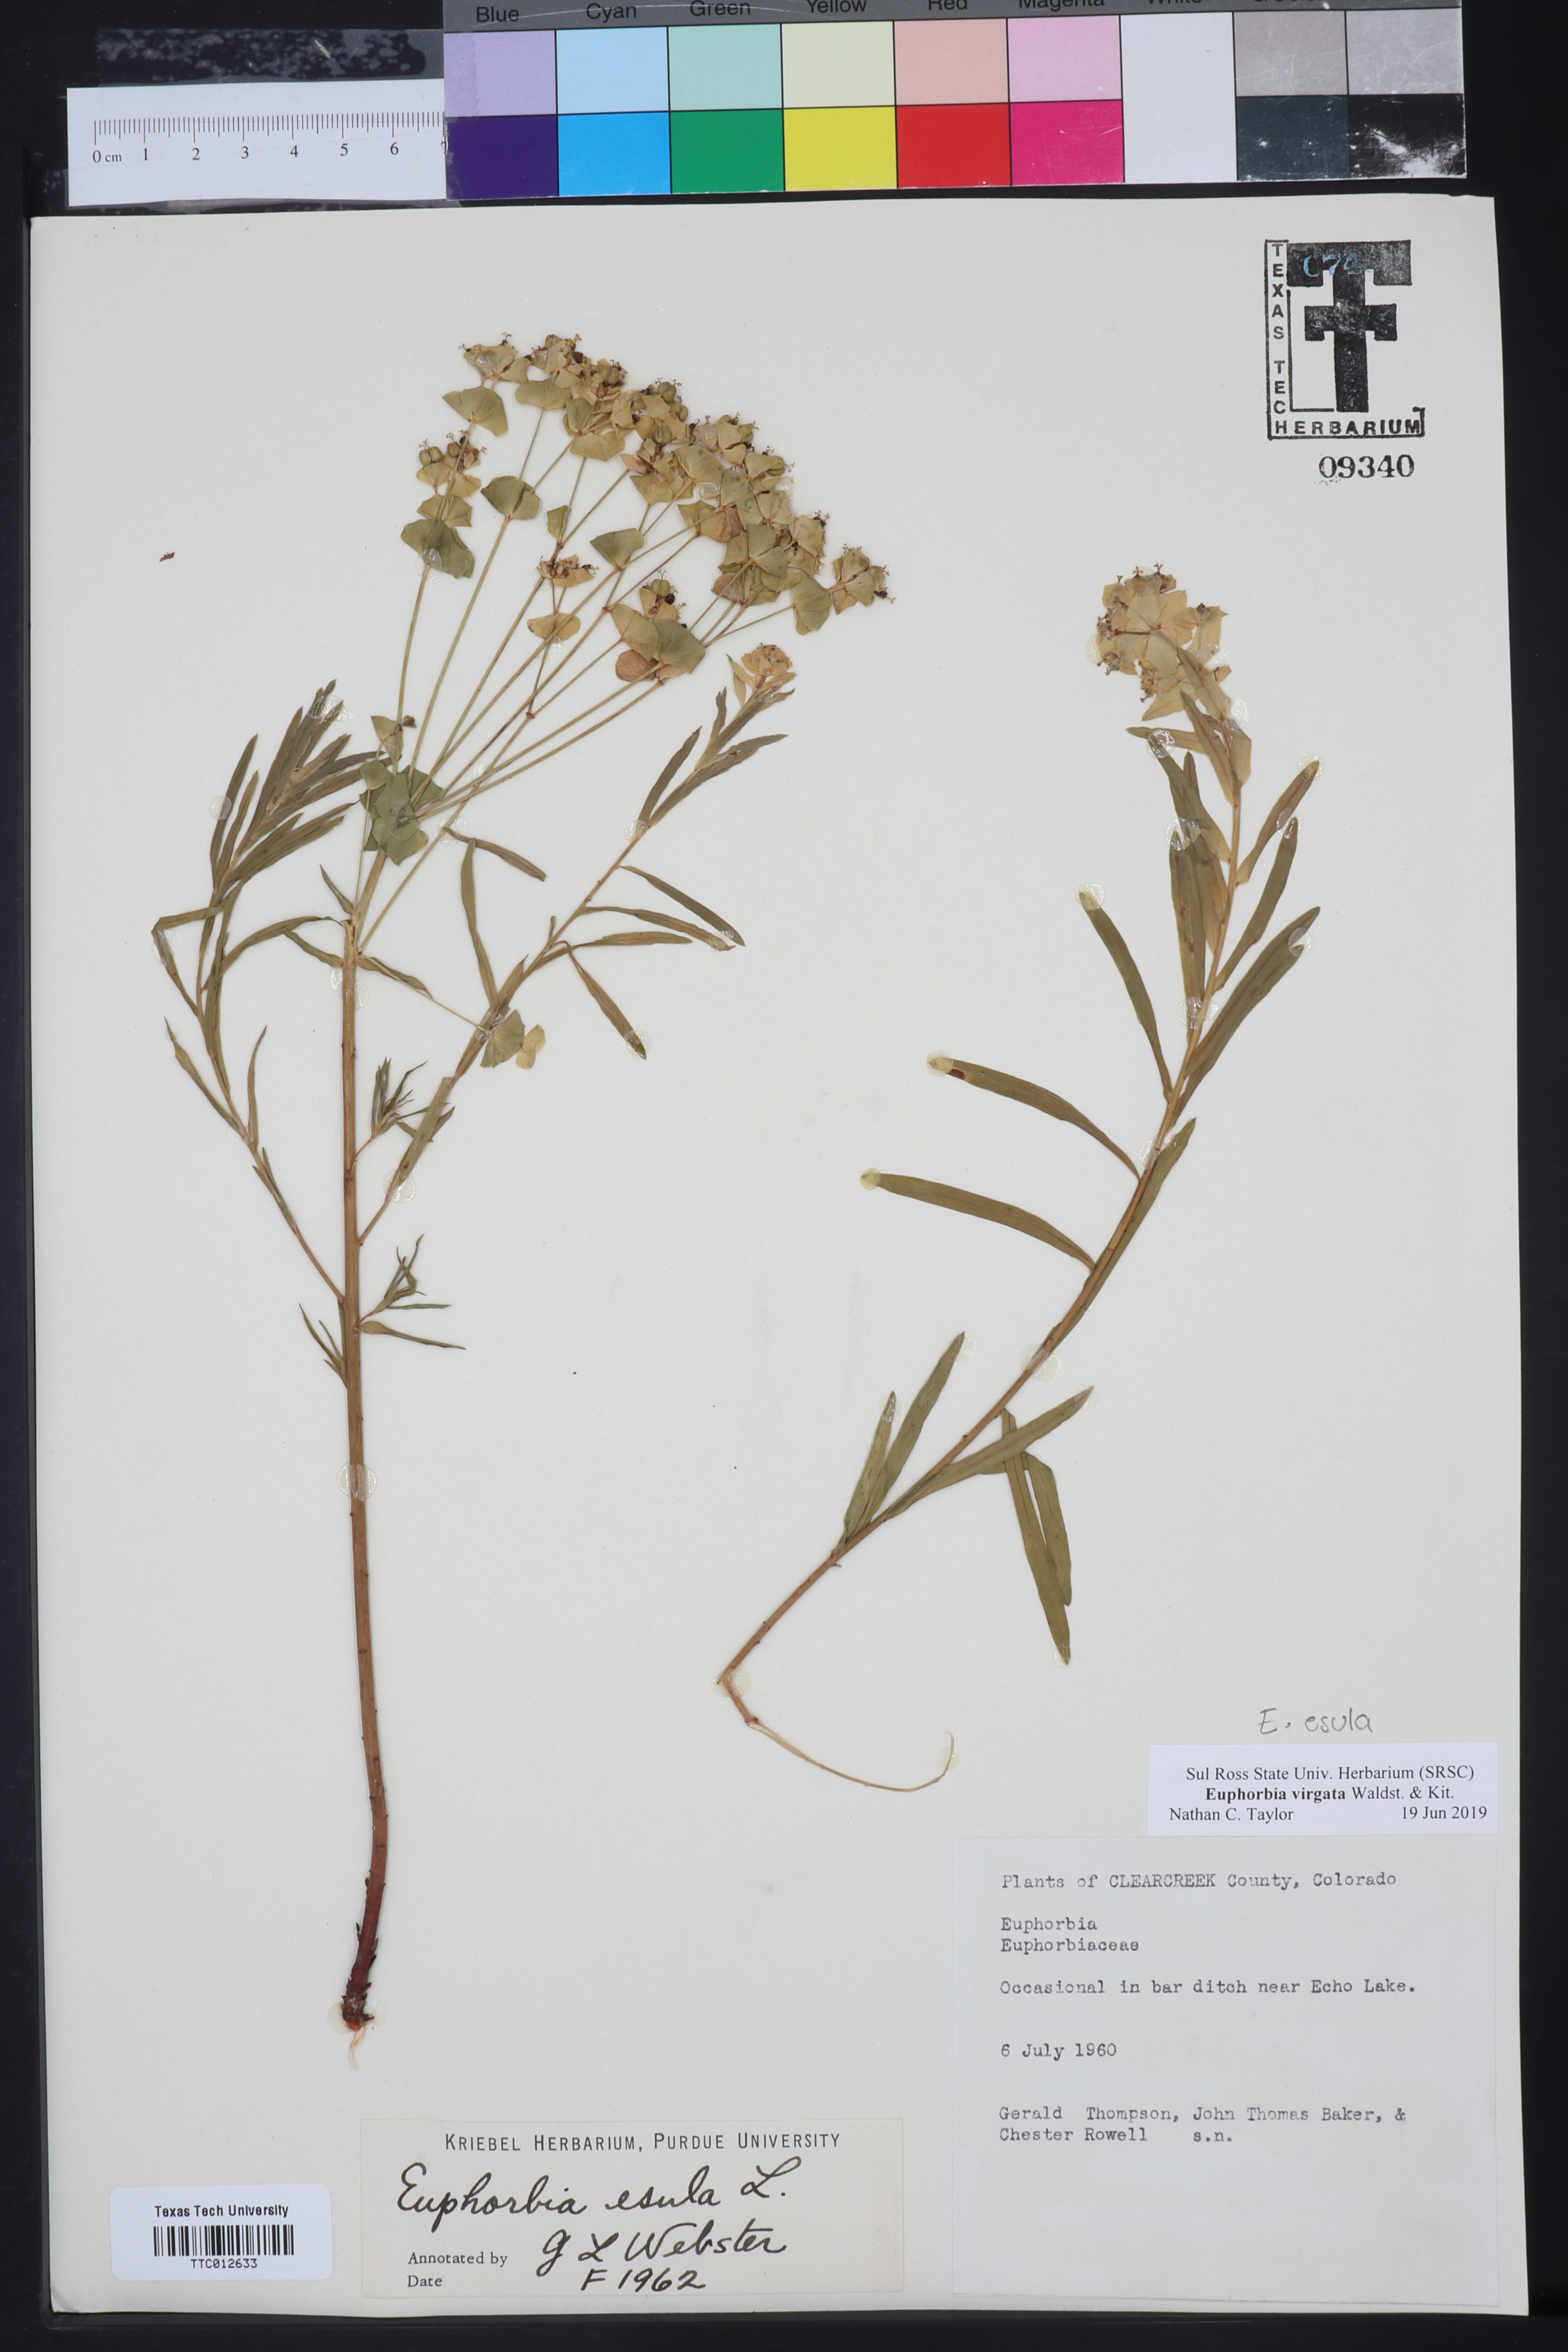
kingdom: Plantae
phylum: Tracheophyta
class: Magnoliopsida
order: Malpighiales
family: Euphorbiaceae
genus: Euphorbia
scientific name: Euphorbia virgata
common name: Leafy spurge
